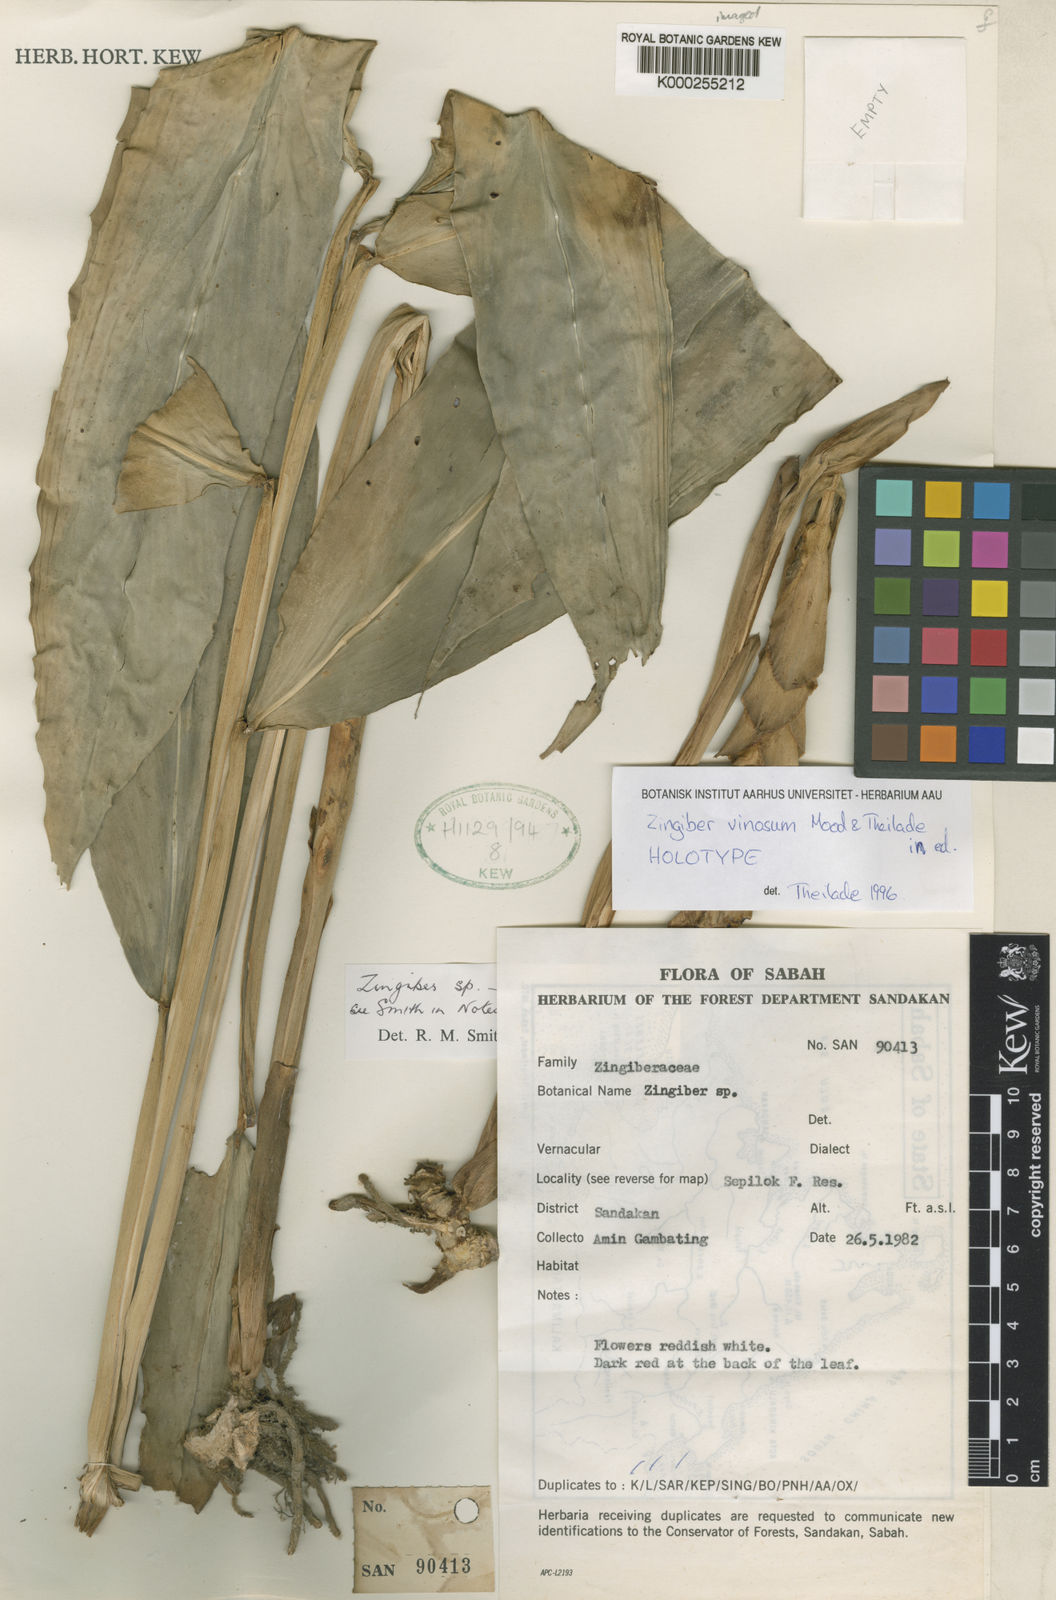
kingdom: Plantae
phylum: Tracheophyta
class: Liliopsida
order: Zingiberales
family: Zingiberaceae
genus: Zingiber
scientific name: Zingiber vinosum
